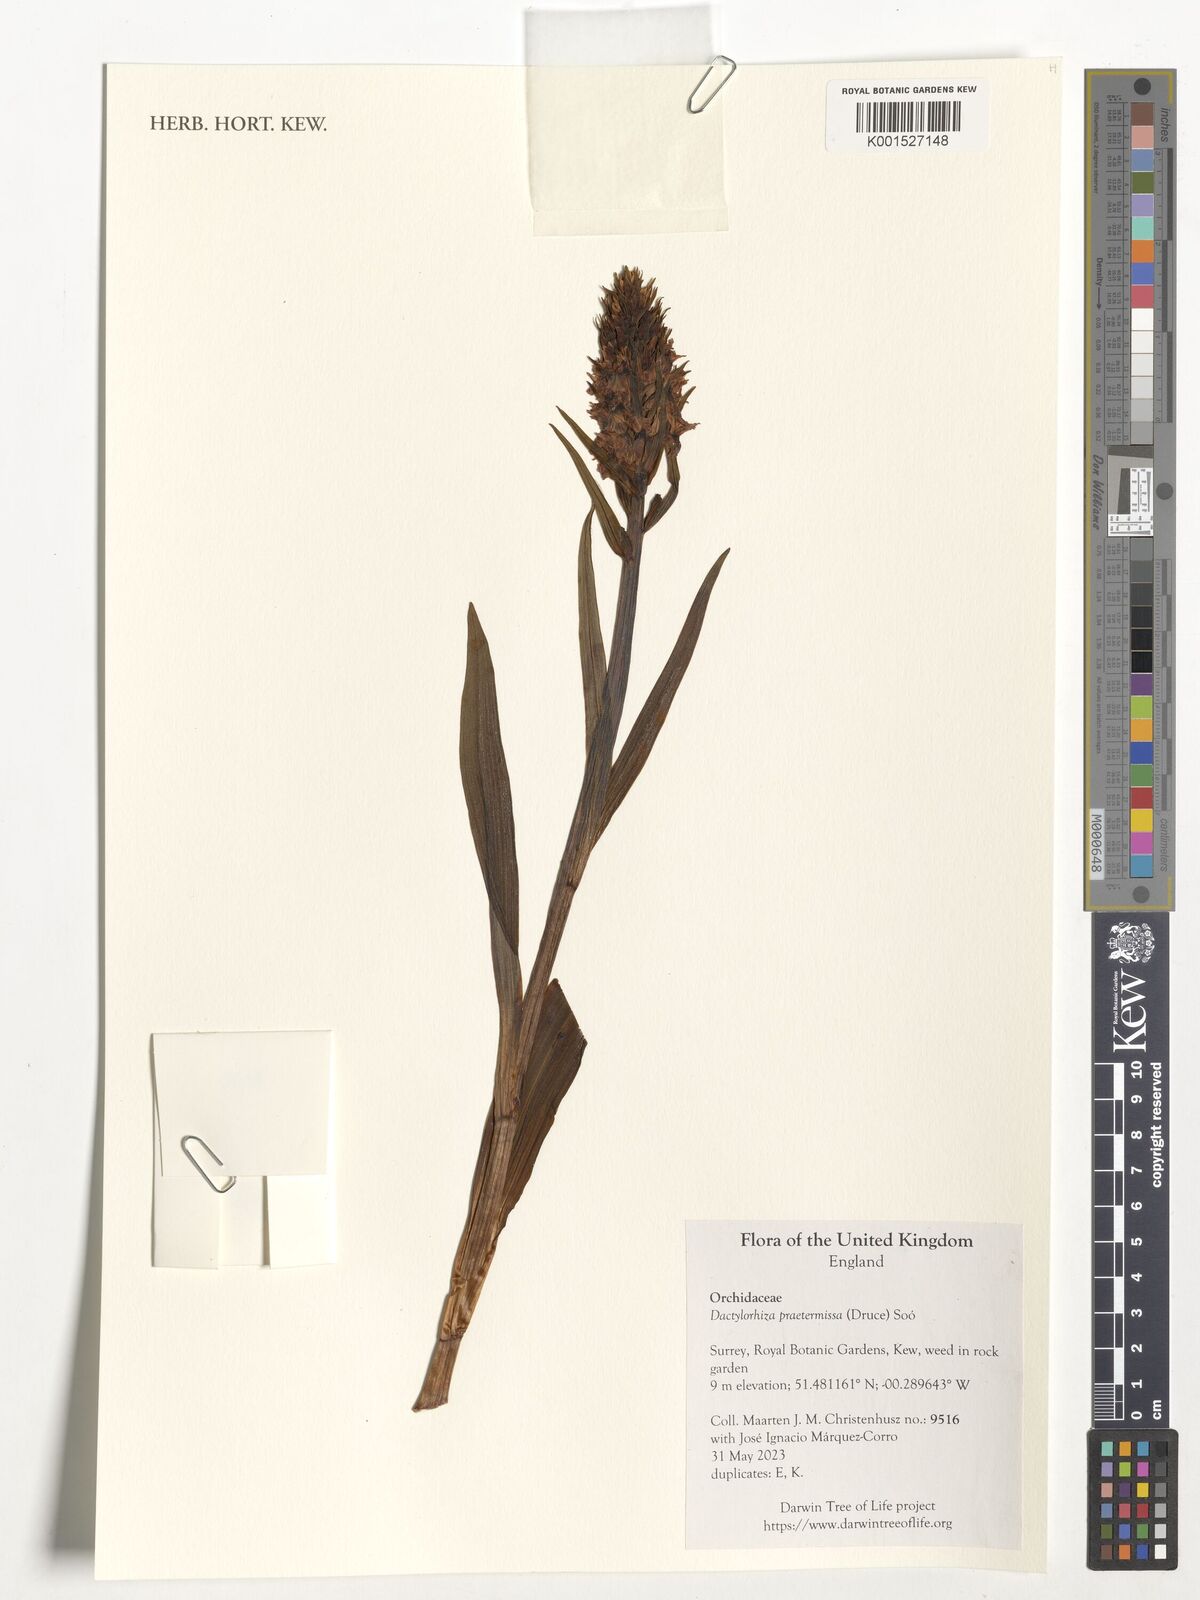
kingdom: Plantae
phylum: Tracheophyta
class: Liliopsida
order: Asparagales
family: Orchidaceae
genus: Dactylorhiza
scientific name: Dactylorhiza majalis
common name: Marsh orchid
